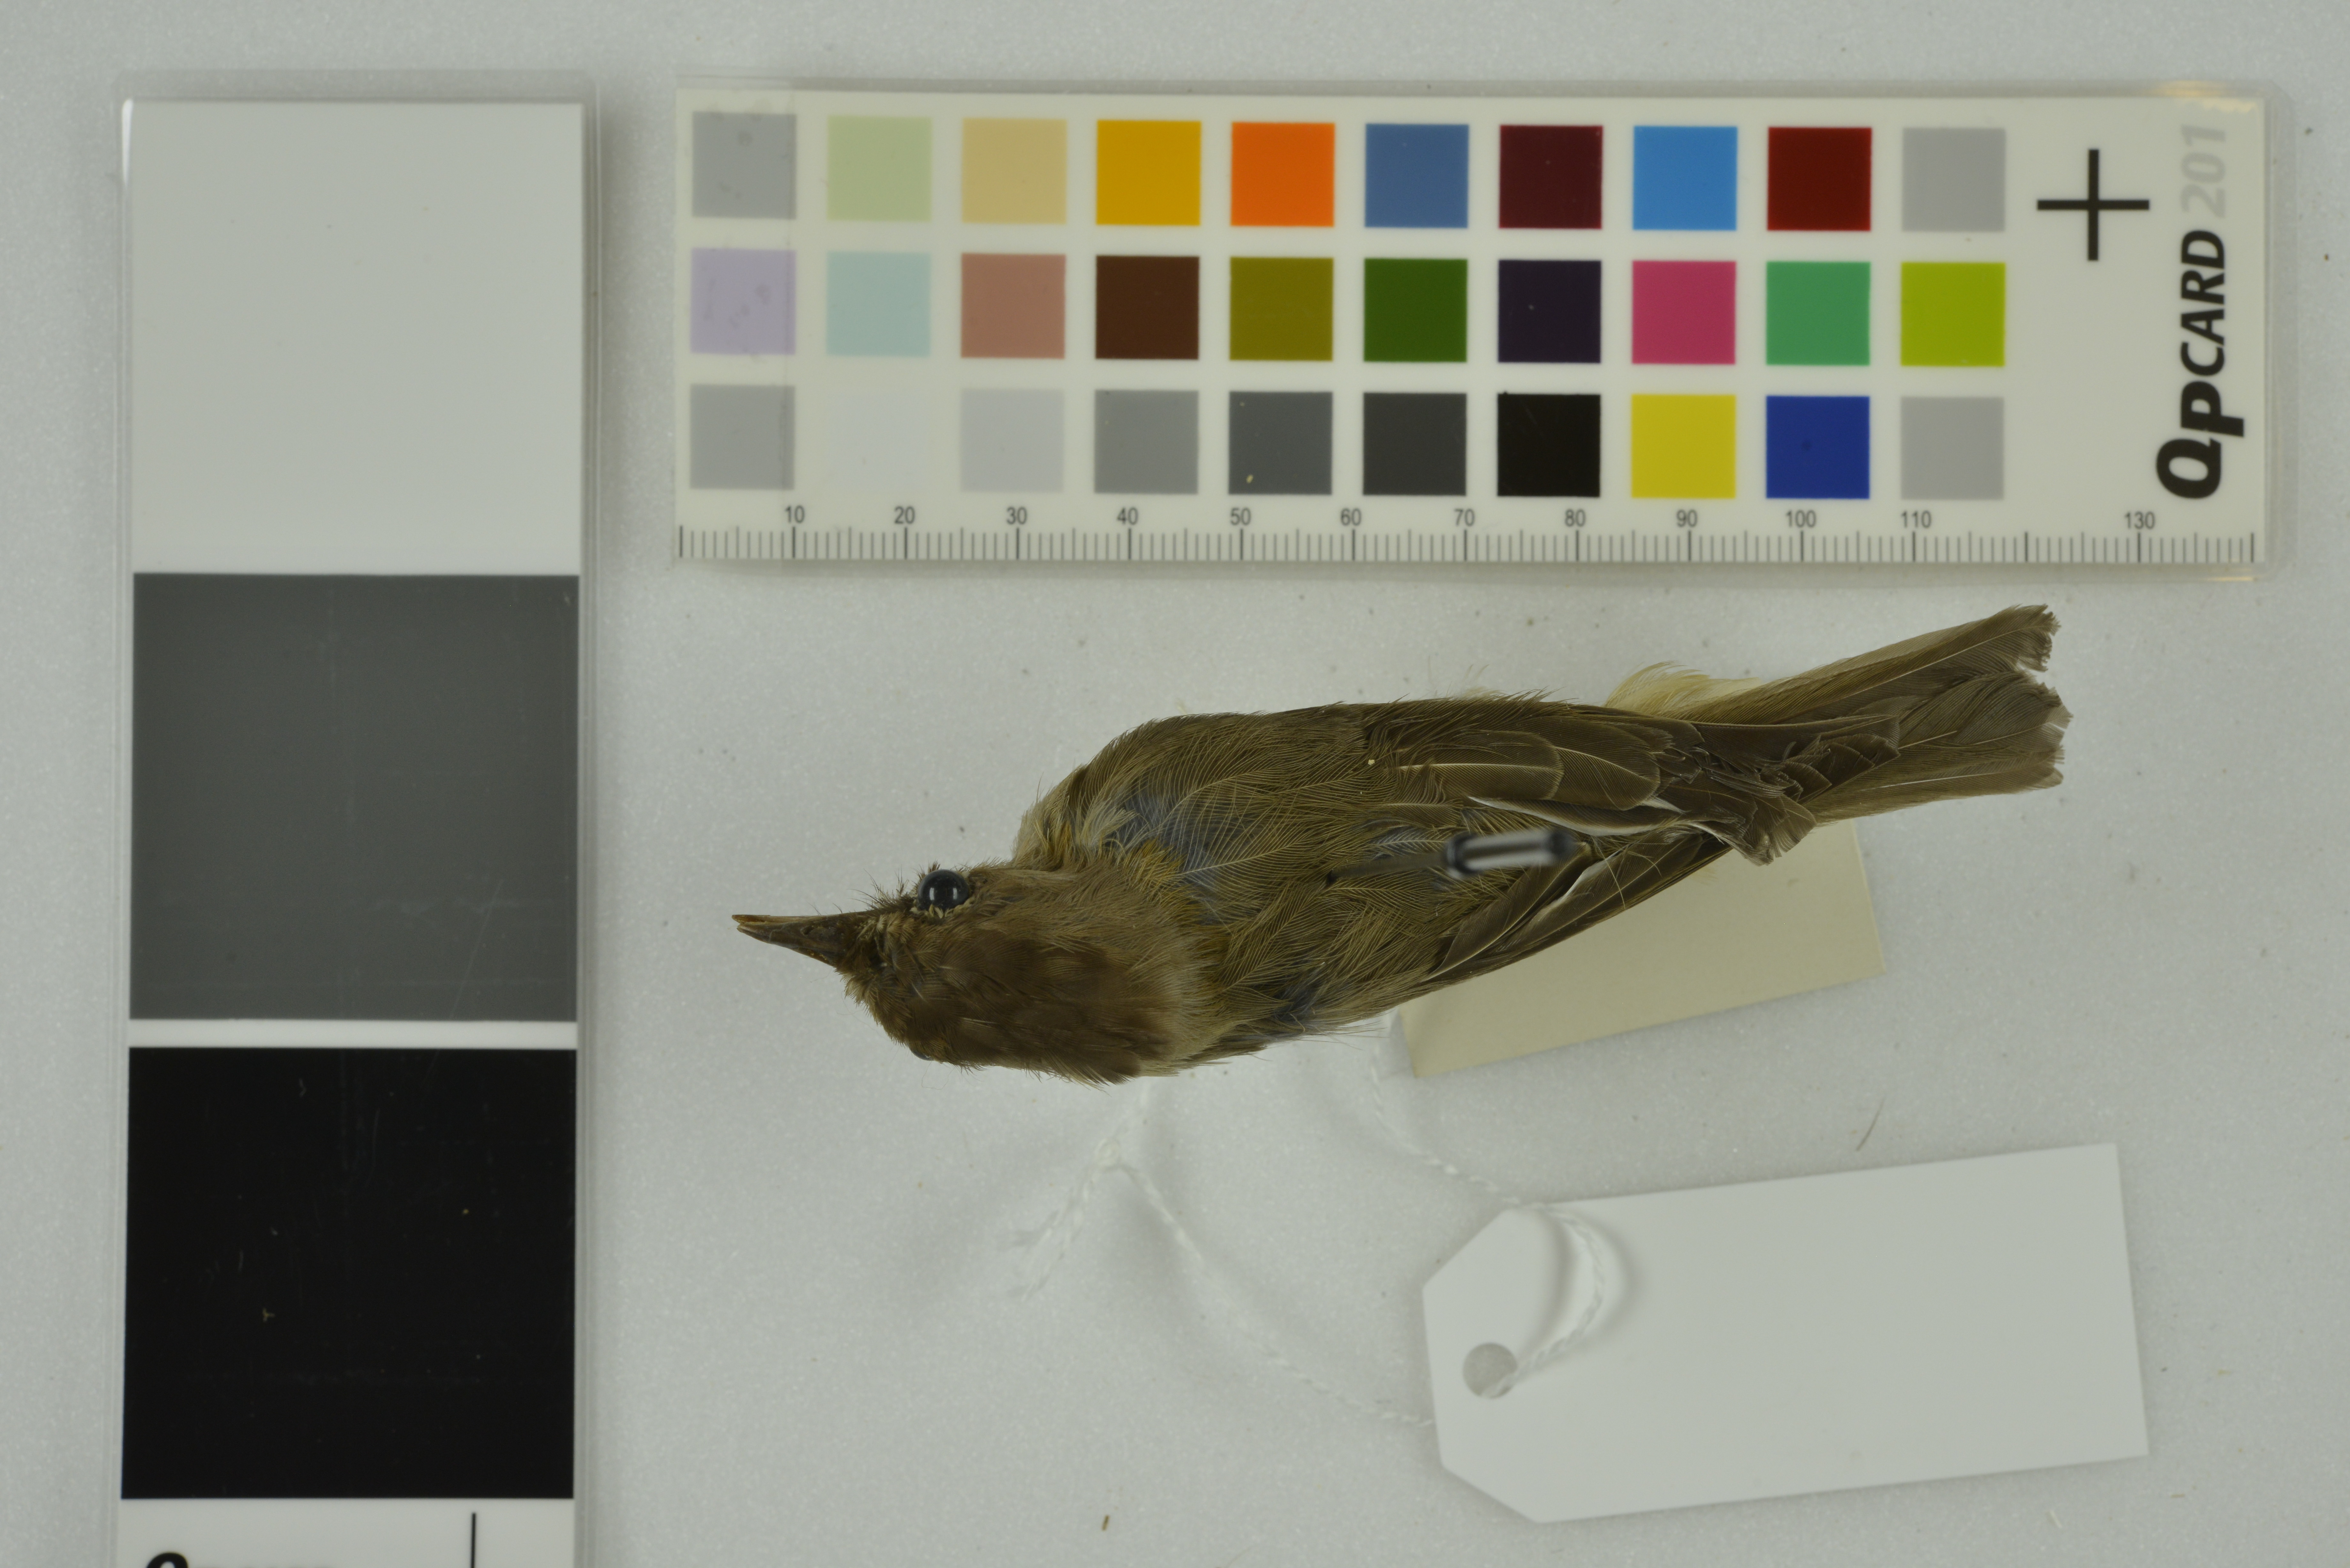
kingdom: Animalia
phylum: Chordata
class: Aves
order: Passeriformes
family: Zosteropidae
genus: Yuhina
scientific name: Yuhina occipitalis
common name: Rufous-vented yuhina
